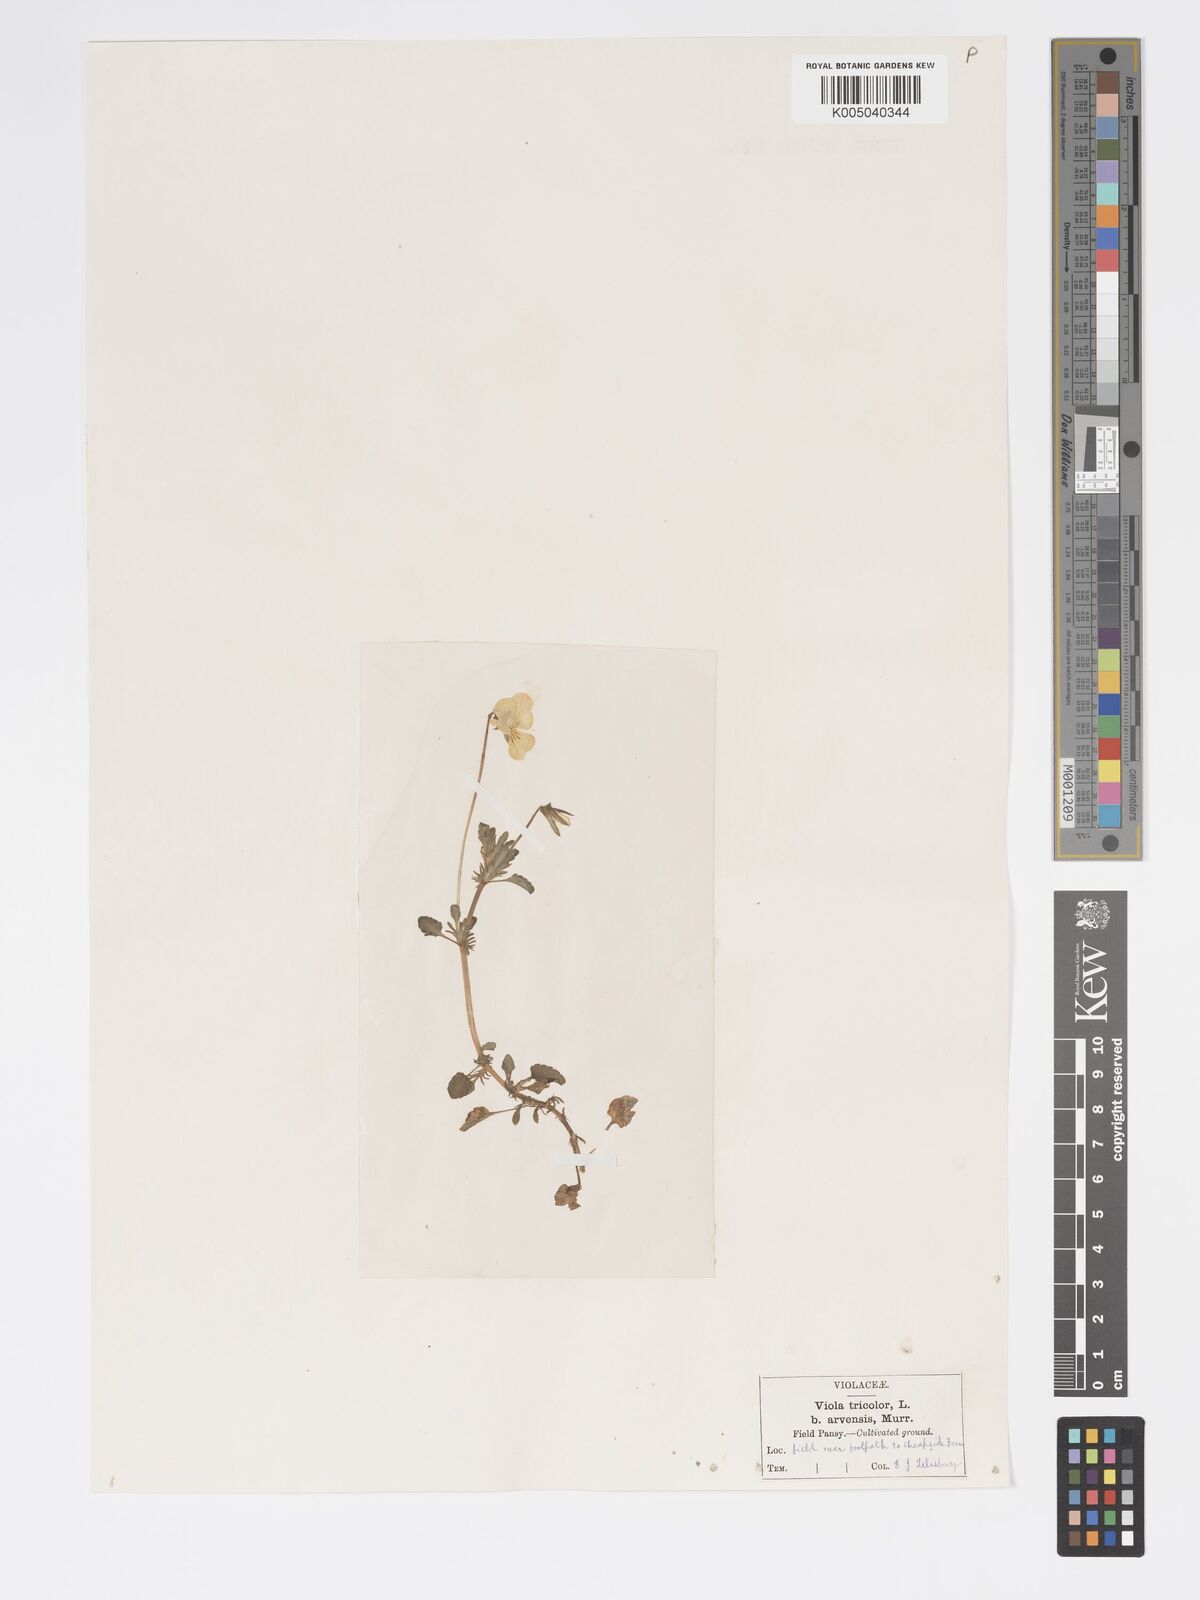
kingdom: Plantae
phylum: Tracheophyta
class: Magnoliopsida
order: Malpighiales
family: Violaceae
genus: Viola
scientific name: Viola arvensis
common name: Field pansy
